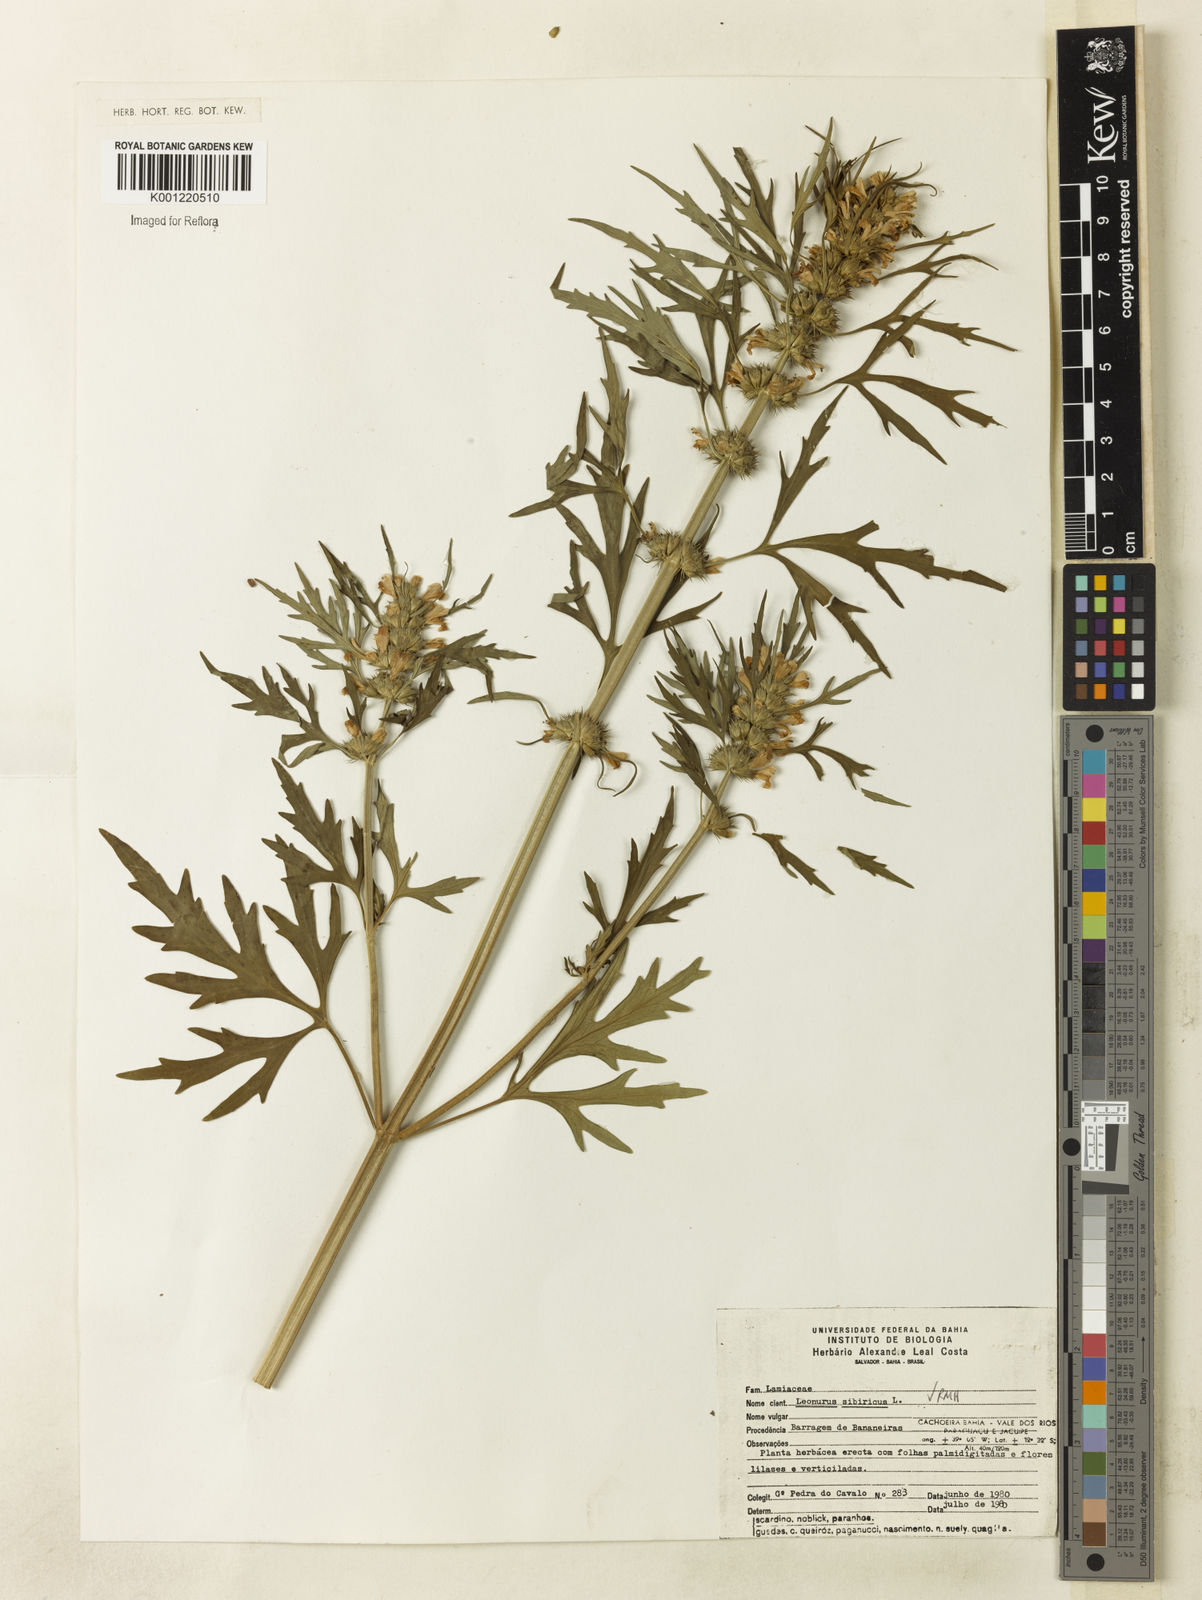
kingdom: Plantae
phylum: Tracheophyta
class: Magnoliopsida
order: Lamiales
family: Lamiaceae
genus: Leonurus
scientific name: Leonurus japonicus
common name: Honeyweed
